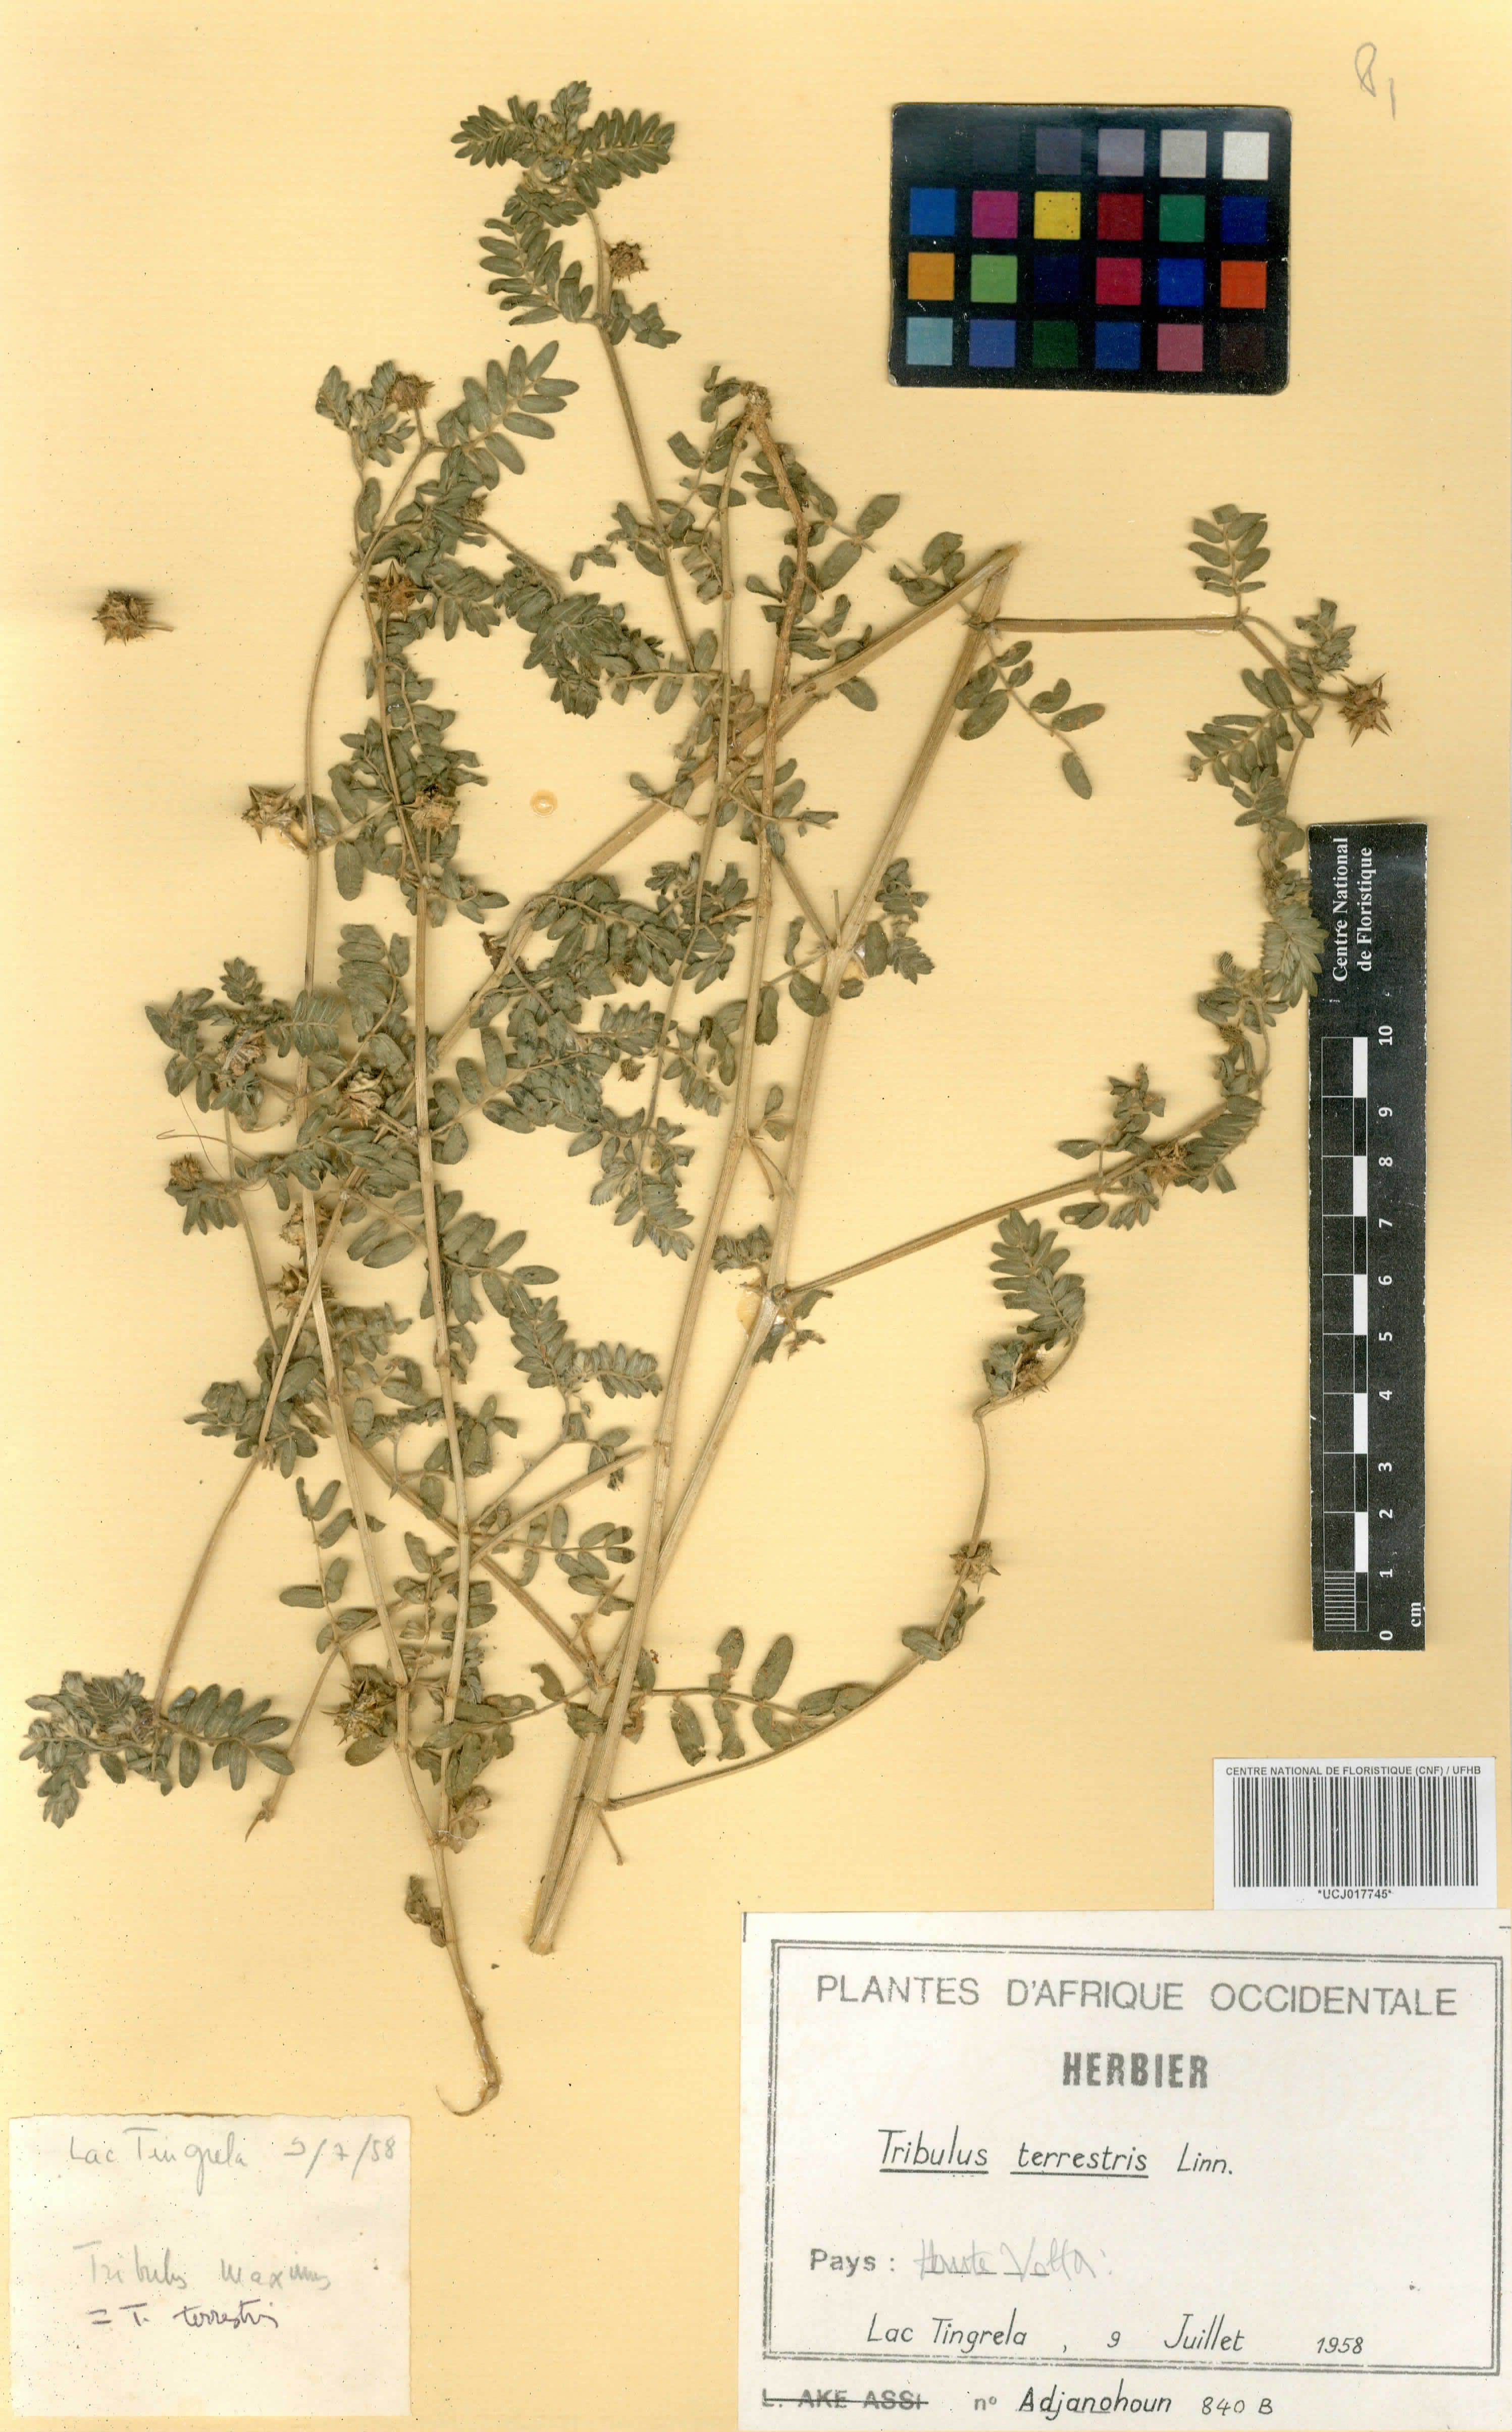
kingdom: Plantae
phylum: Tracheophyta
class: Magnoliopsida
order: Zygophyllales
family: Zygophyllaceae
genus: Tribulus
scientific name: Tribulus terrestris
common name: Puncturevine
